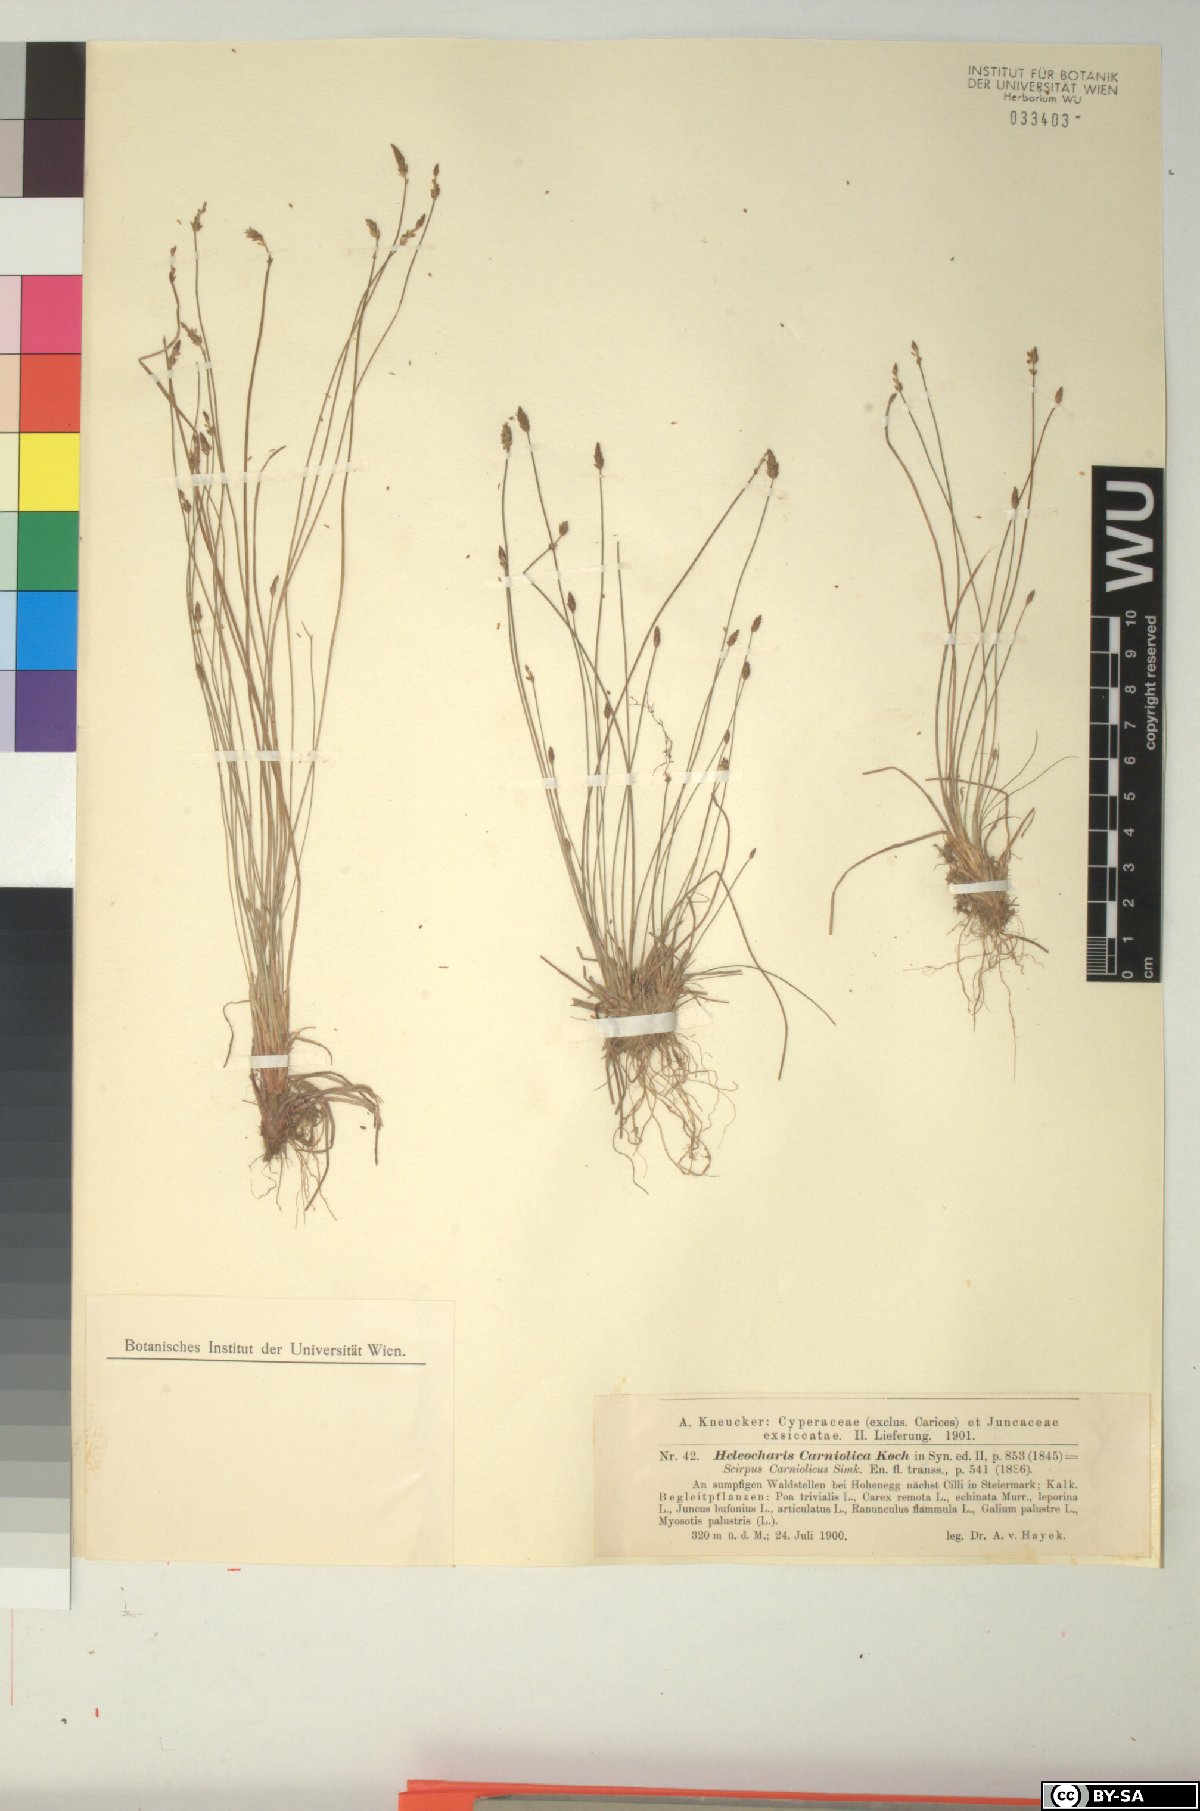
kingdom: Plantae
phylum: Tracheophyta
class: Liliopsida
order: Poales
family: Cyperaceae
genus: Eleocharis
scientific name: Eleocharis carniolica
